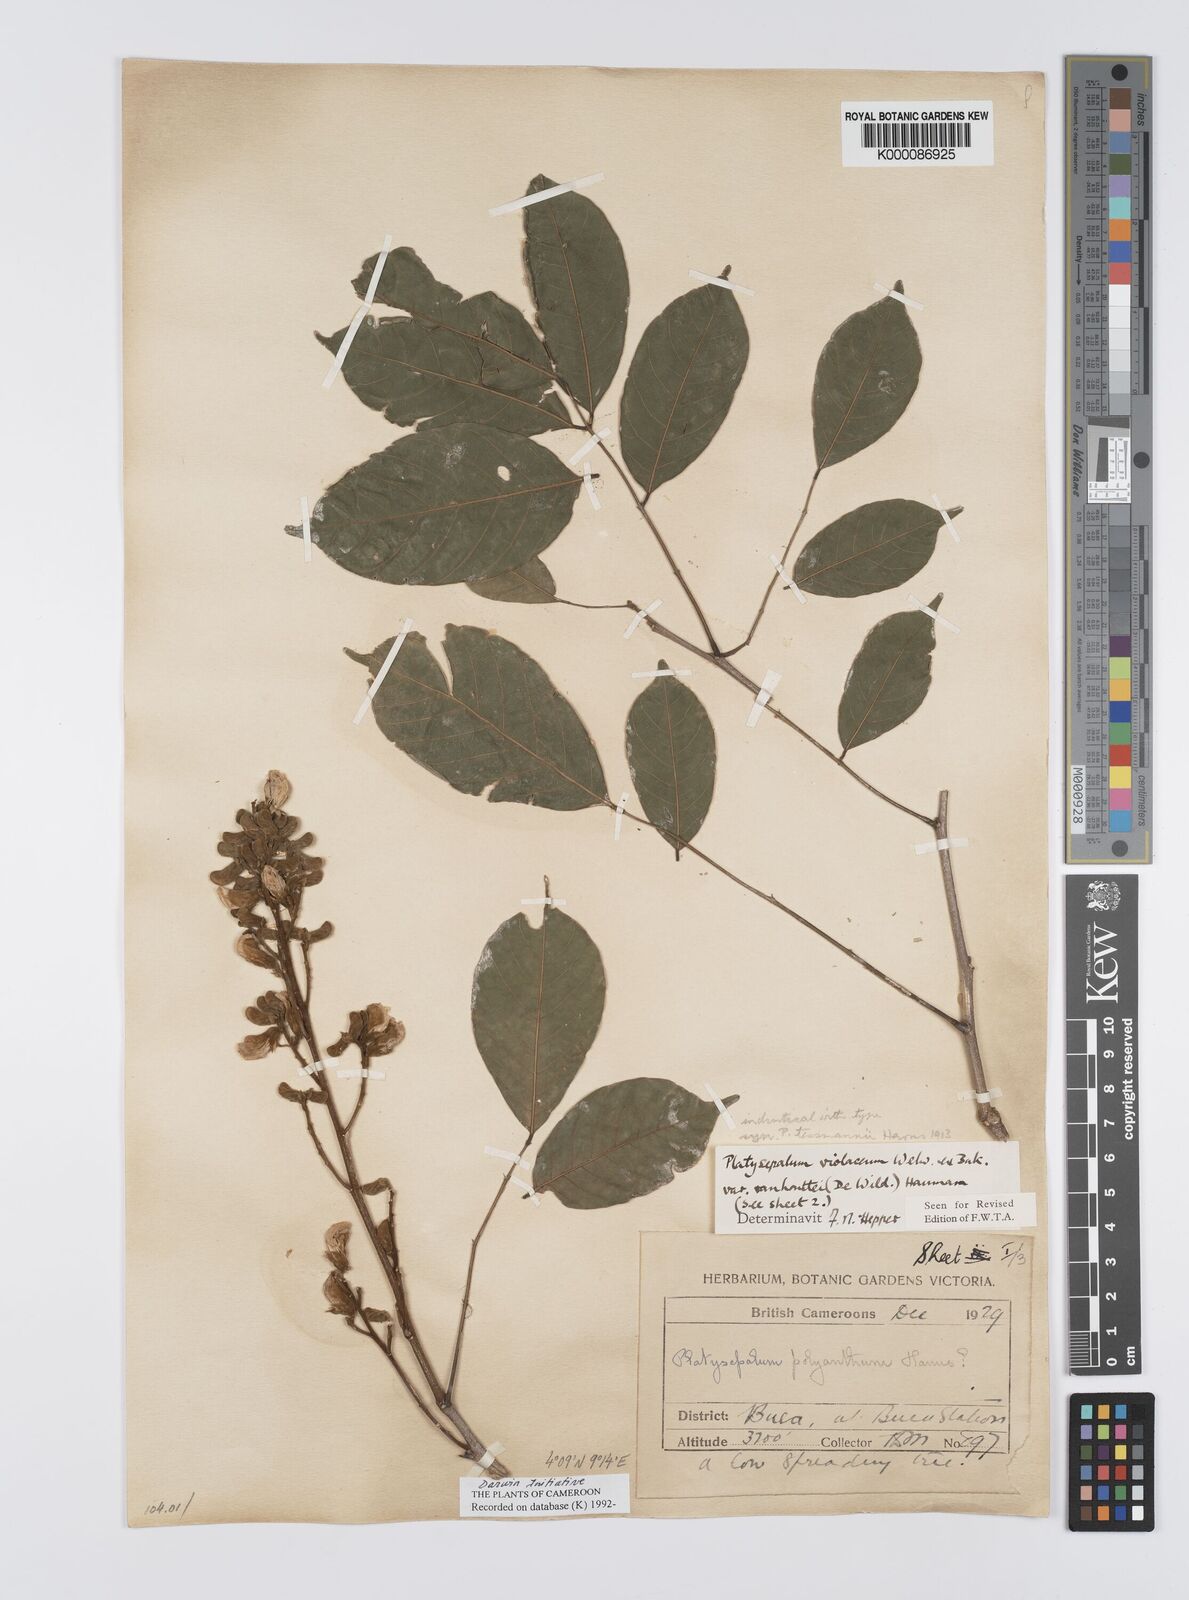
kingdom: Plantae
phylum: Tracheophyta
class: Magnoliopsida
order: Fabales
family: Fabaceae
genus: Platysepalum
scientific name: Platysepalum violaceum
